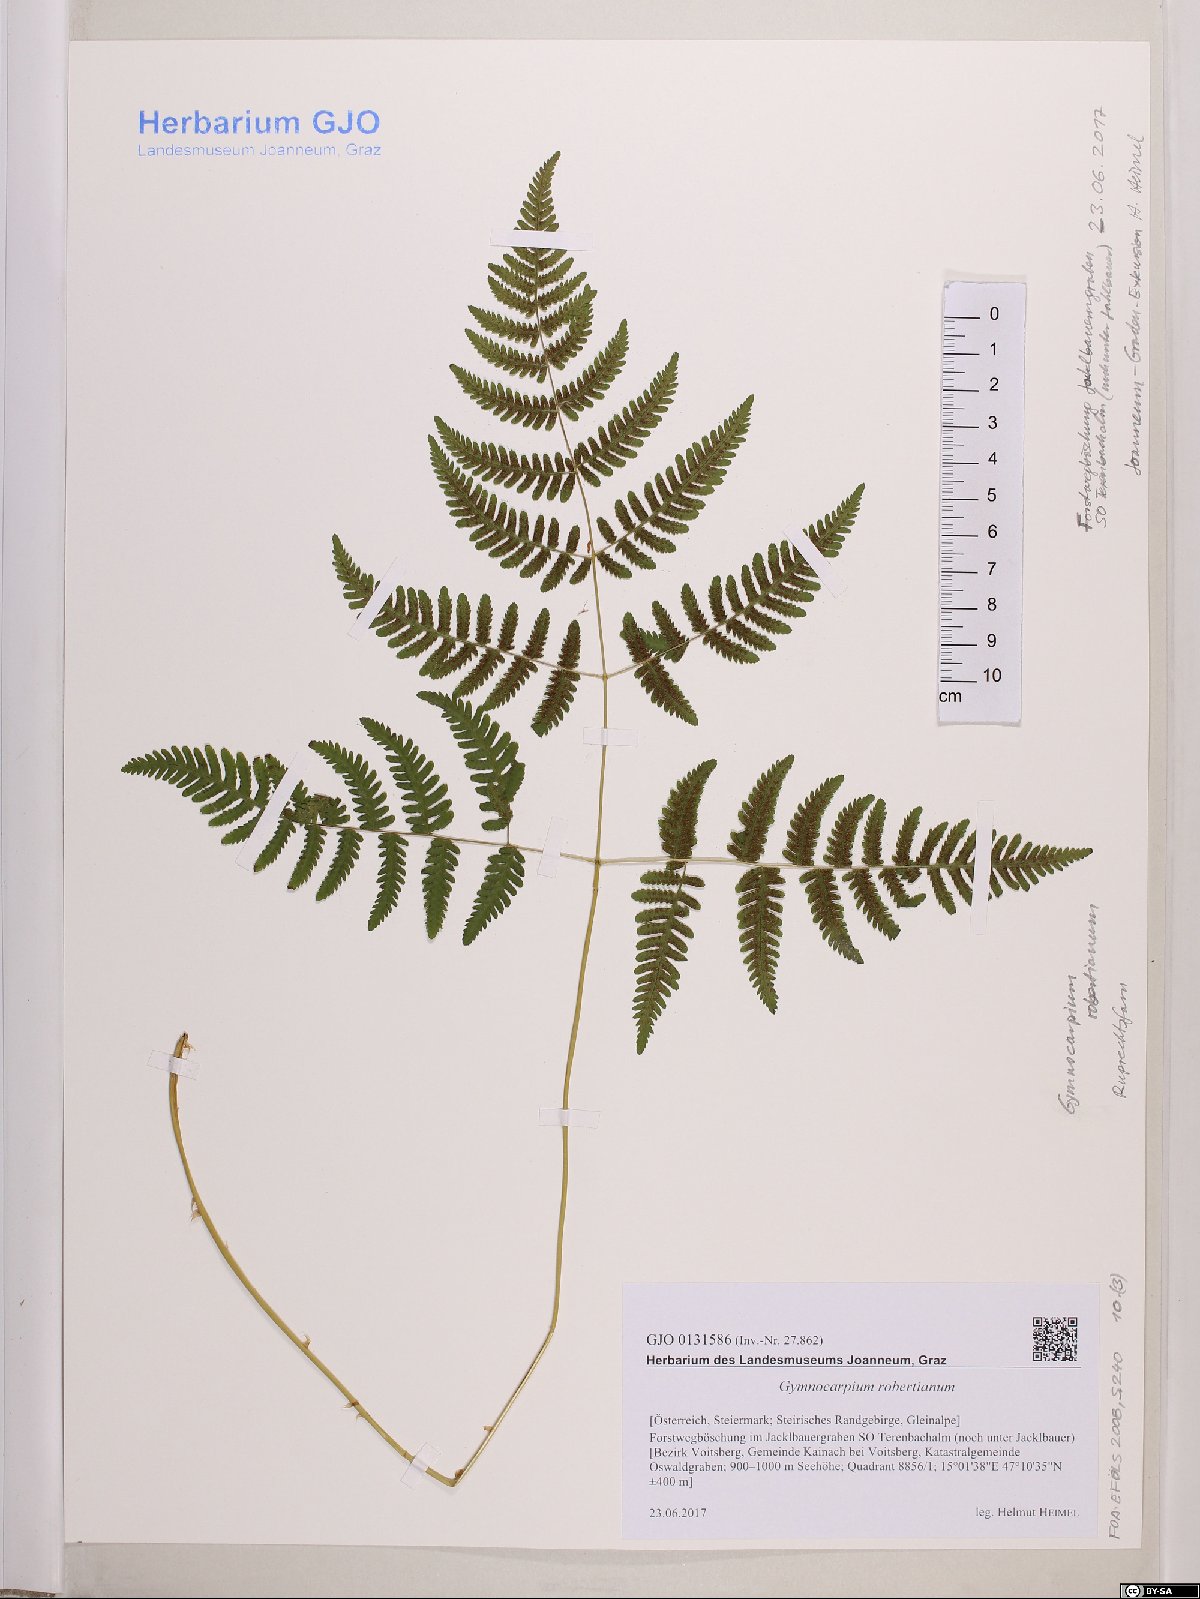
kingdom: Plantae
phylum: Tracheophyta
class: Polypodiopsida
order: Polypodiales
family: Cystopteridaceae
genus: Gymnocarpium
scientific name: Gymnocarpium robertianum
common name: Limestone fern
